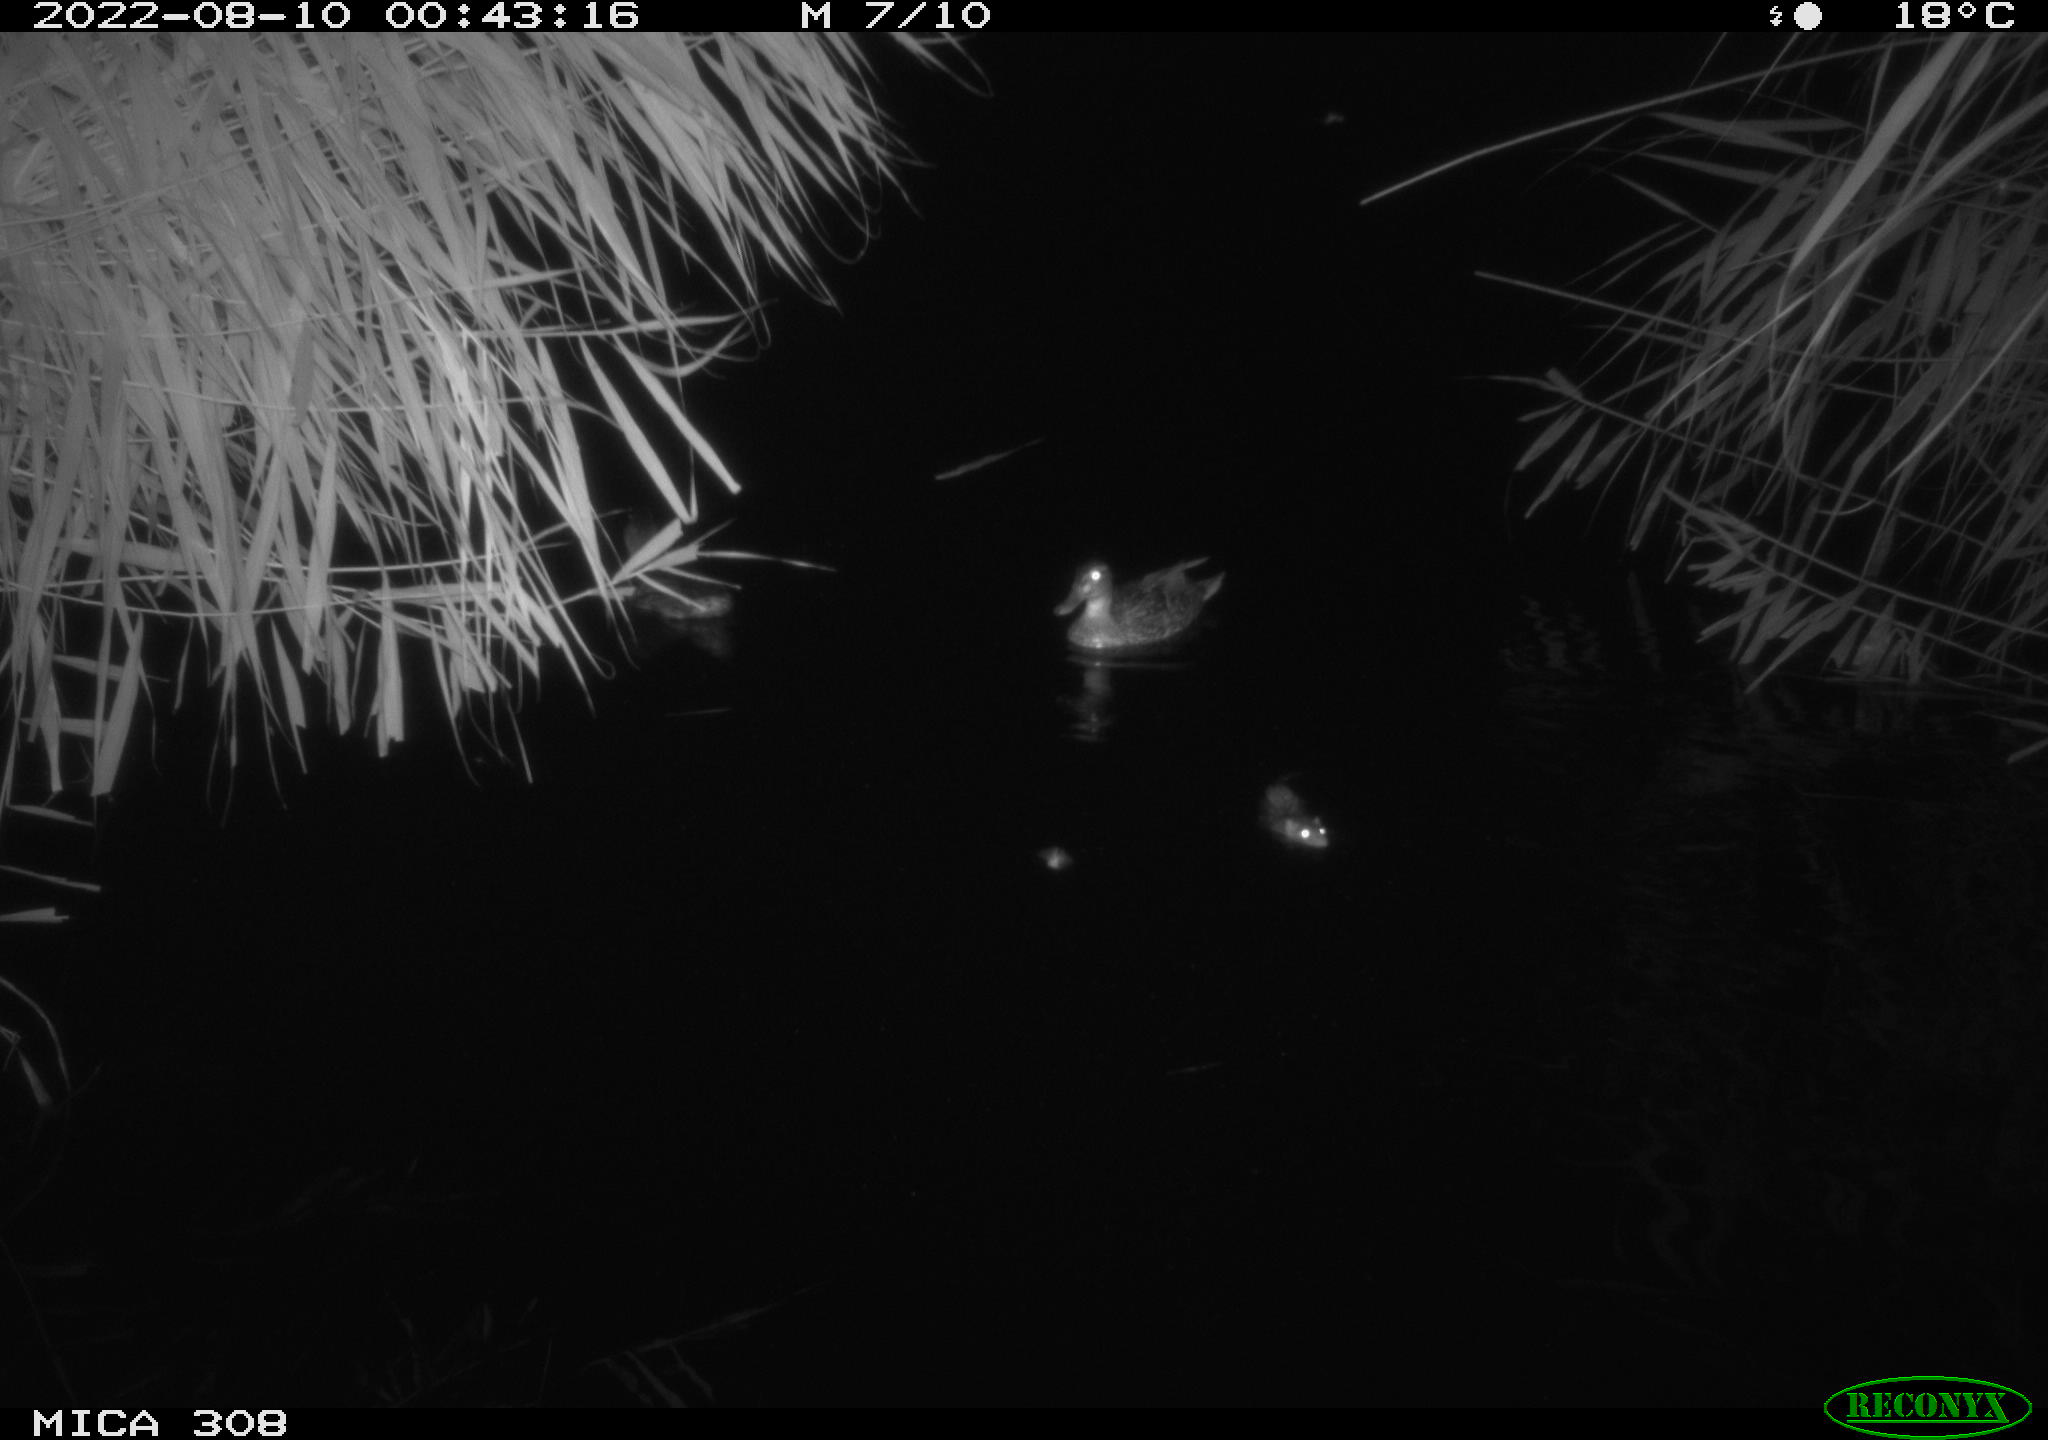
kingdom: Animalia
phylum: Chordata
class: Mammalia
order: Rodentia
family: Muridae
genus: Rattus
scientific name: Rattus norvegicus
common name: Brown rat
